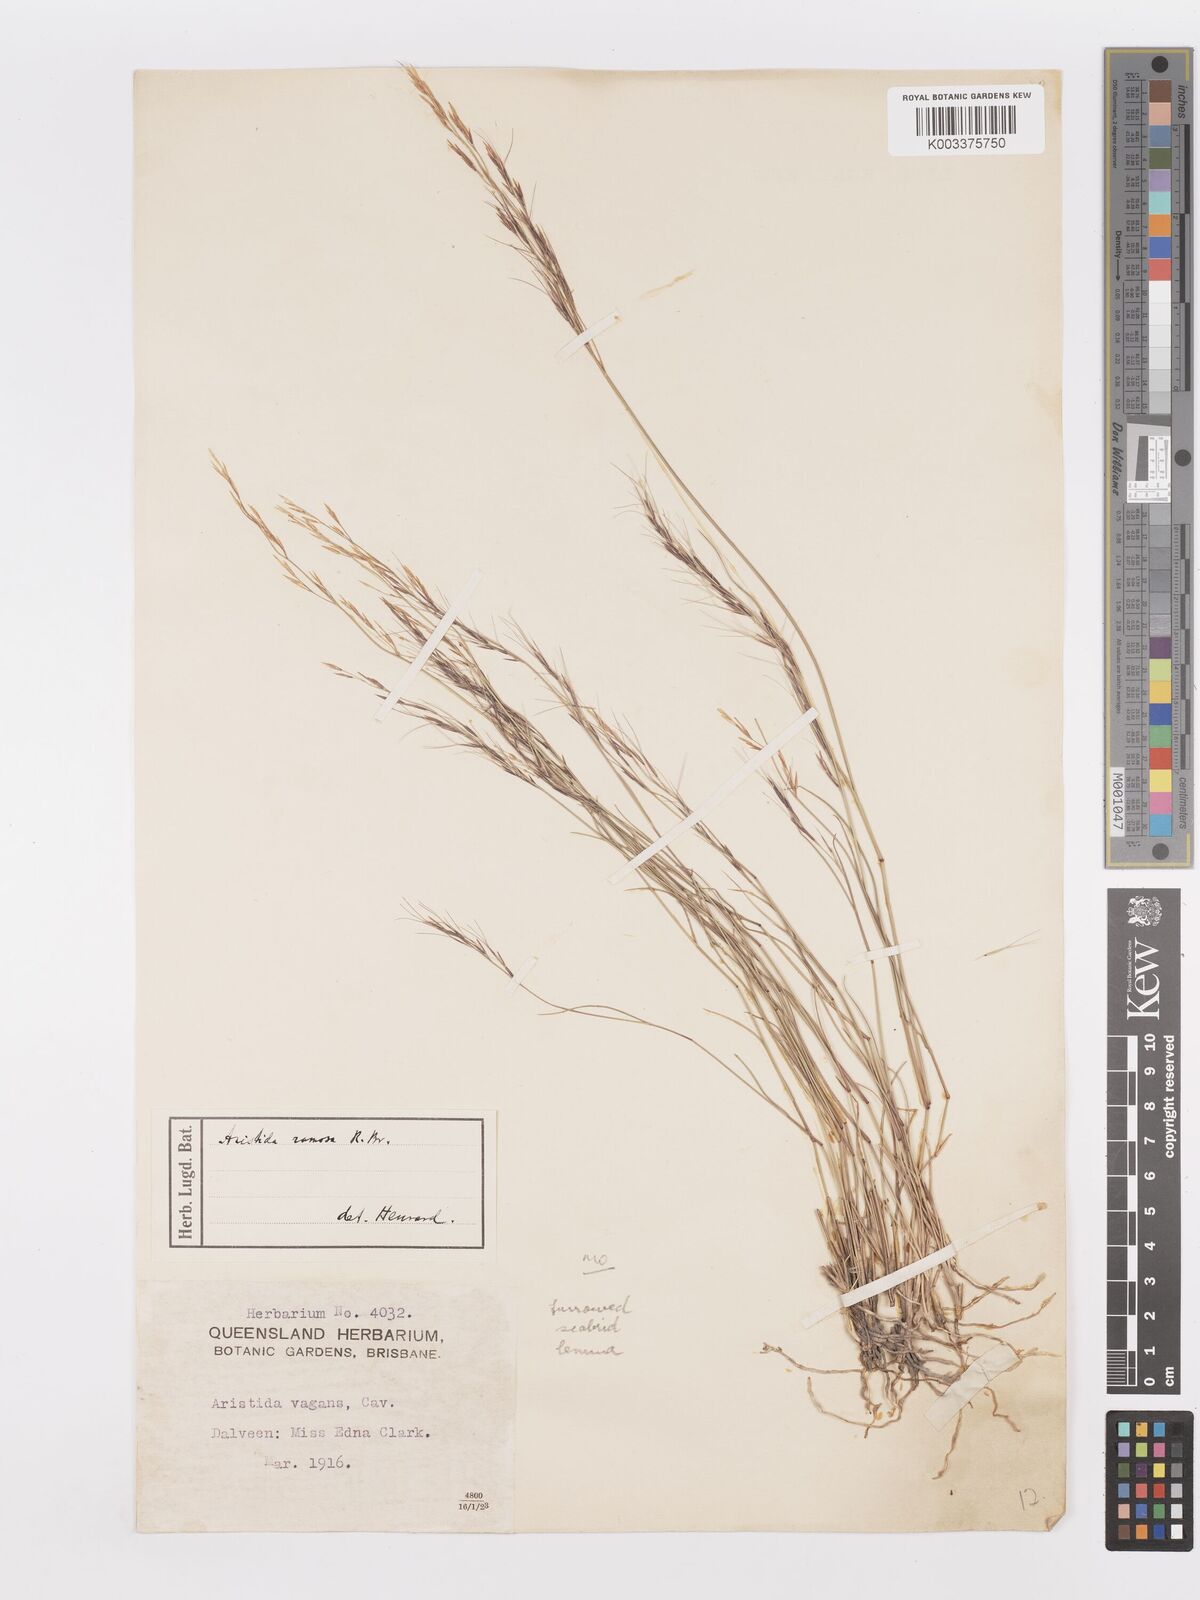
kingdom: Plantae
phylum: Tracheophyta
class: Liliopsida
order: Poales
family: Poaceae
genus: Aristida
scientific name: Aristida
